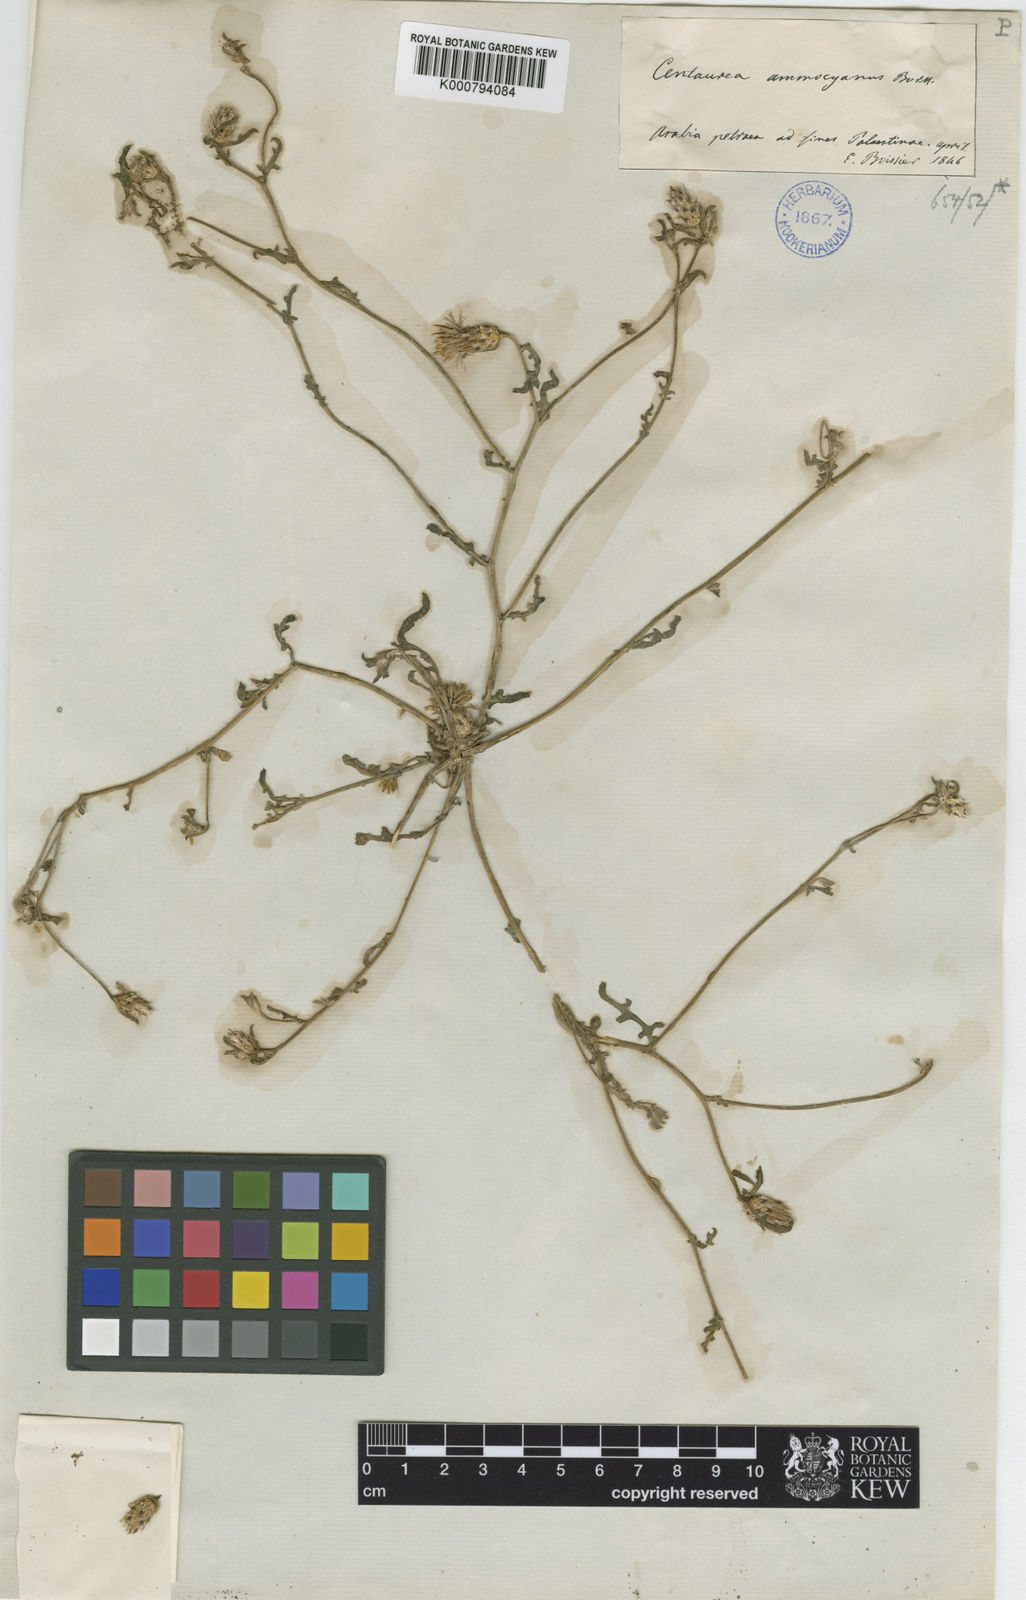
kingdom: Plantae
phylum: Tracheophyta
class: Magnoliopsida
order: Asterales
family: Asteraceae
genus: Centaurea
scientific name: Centaurea ammocyanus
